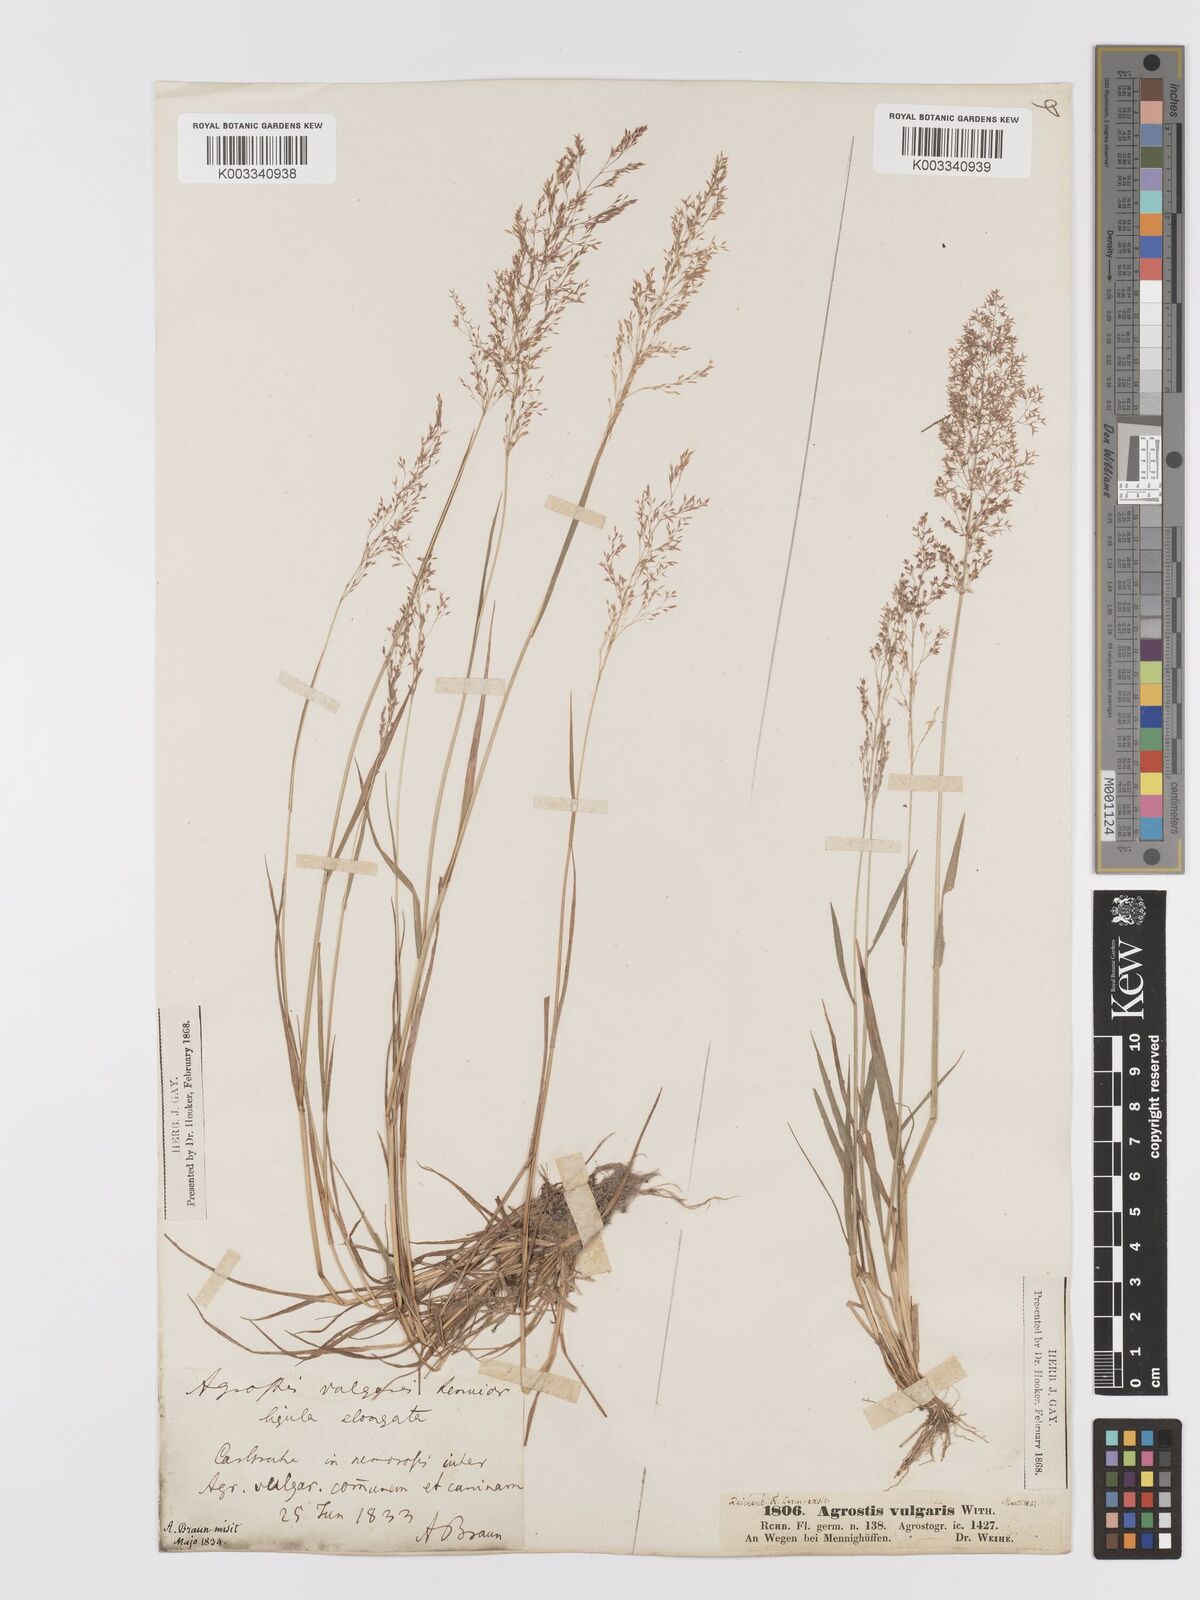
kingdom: Plantae
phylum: Tracheophyta
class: Liliopsida
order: Poales
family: Poaceae
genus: Agrostis
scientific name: Agrostis capillaris
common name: Colonial bentgrass
